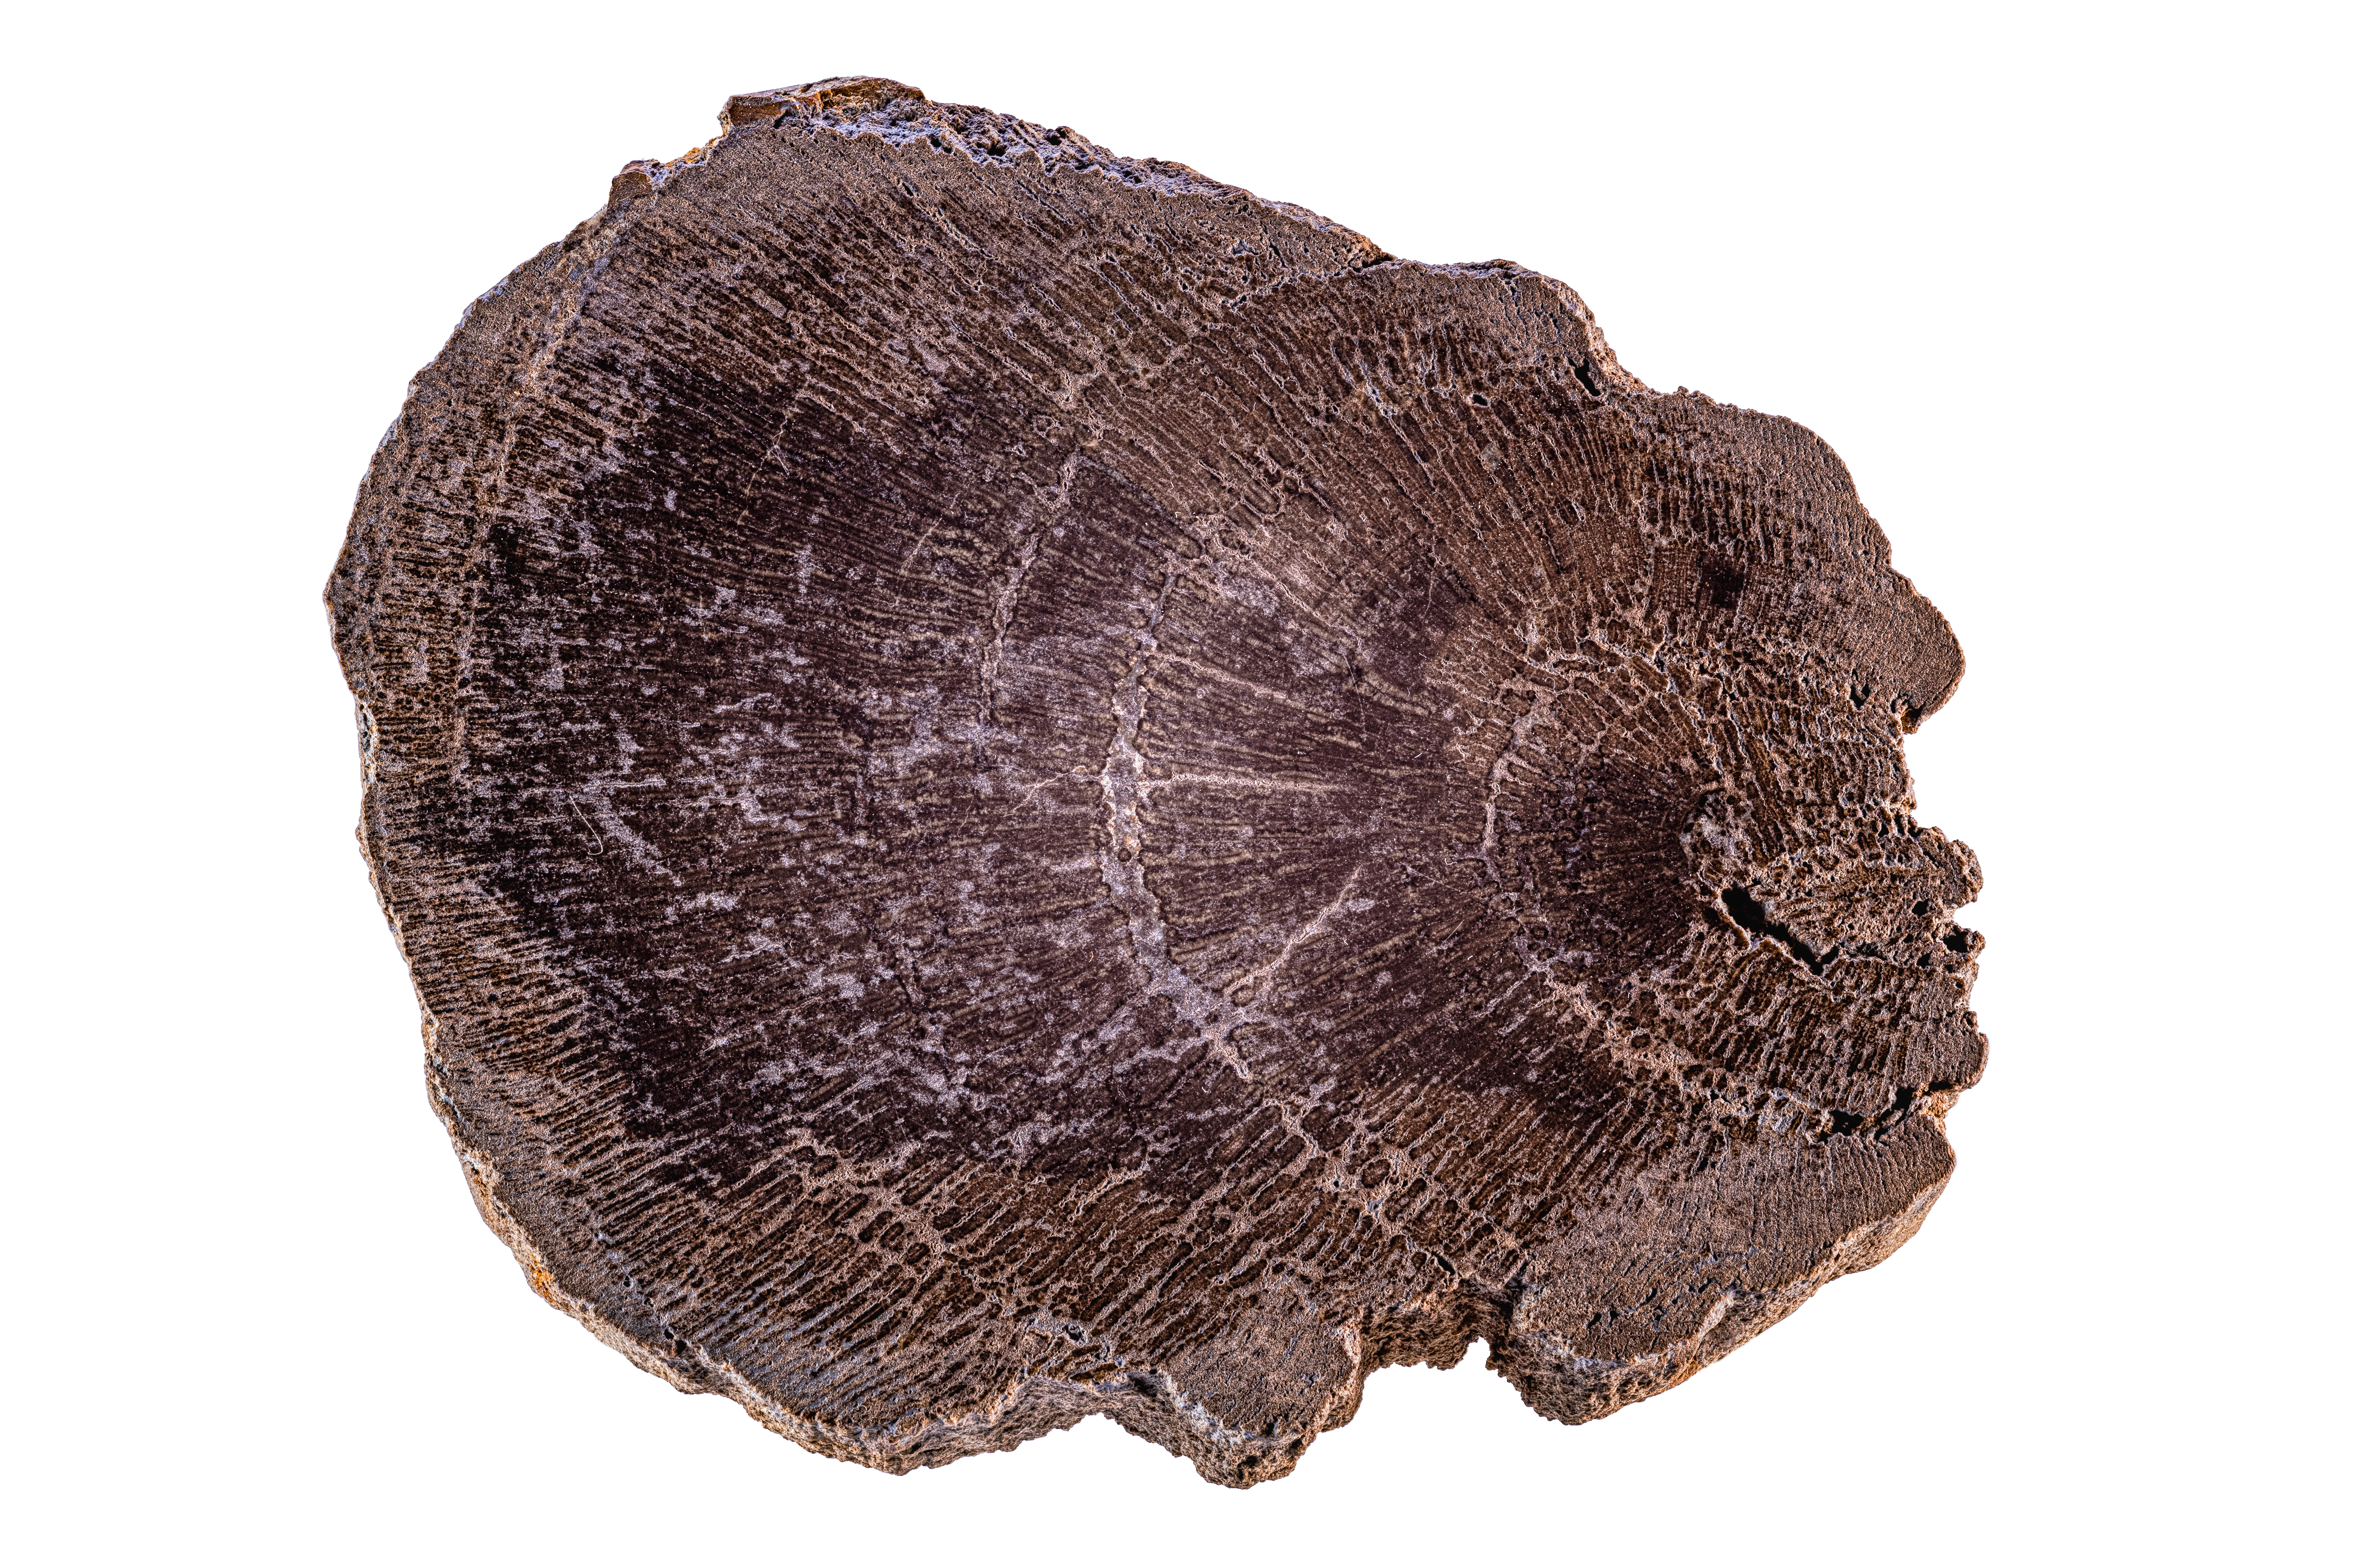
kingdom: Plantae
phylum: Tracheophyta
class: Pinopsida
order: Pinales
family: Araucariaceae
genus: Agathoxylon
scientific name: Agathoxylon Dadoxylon spec
